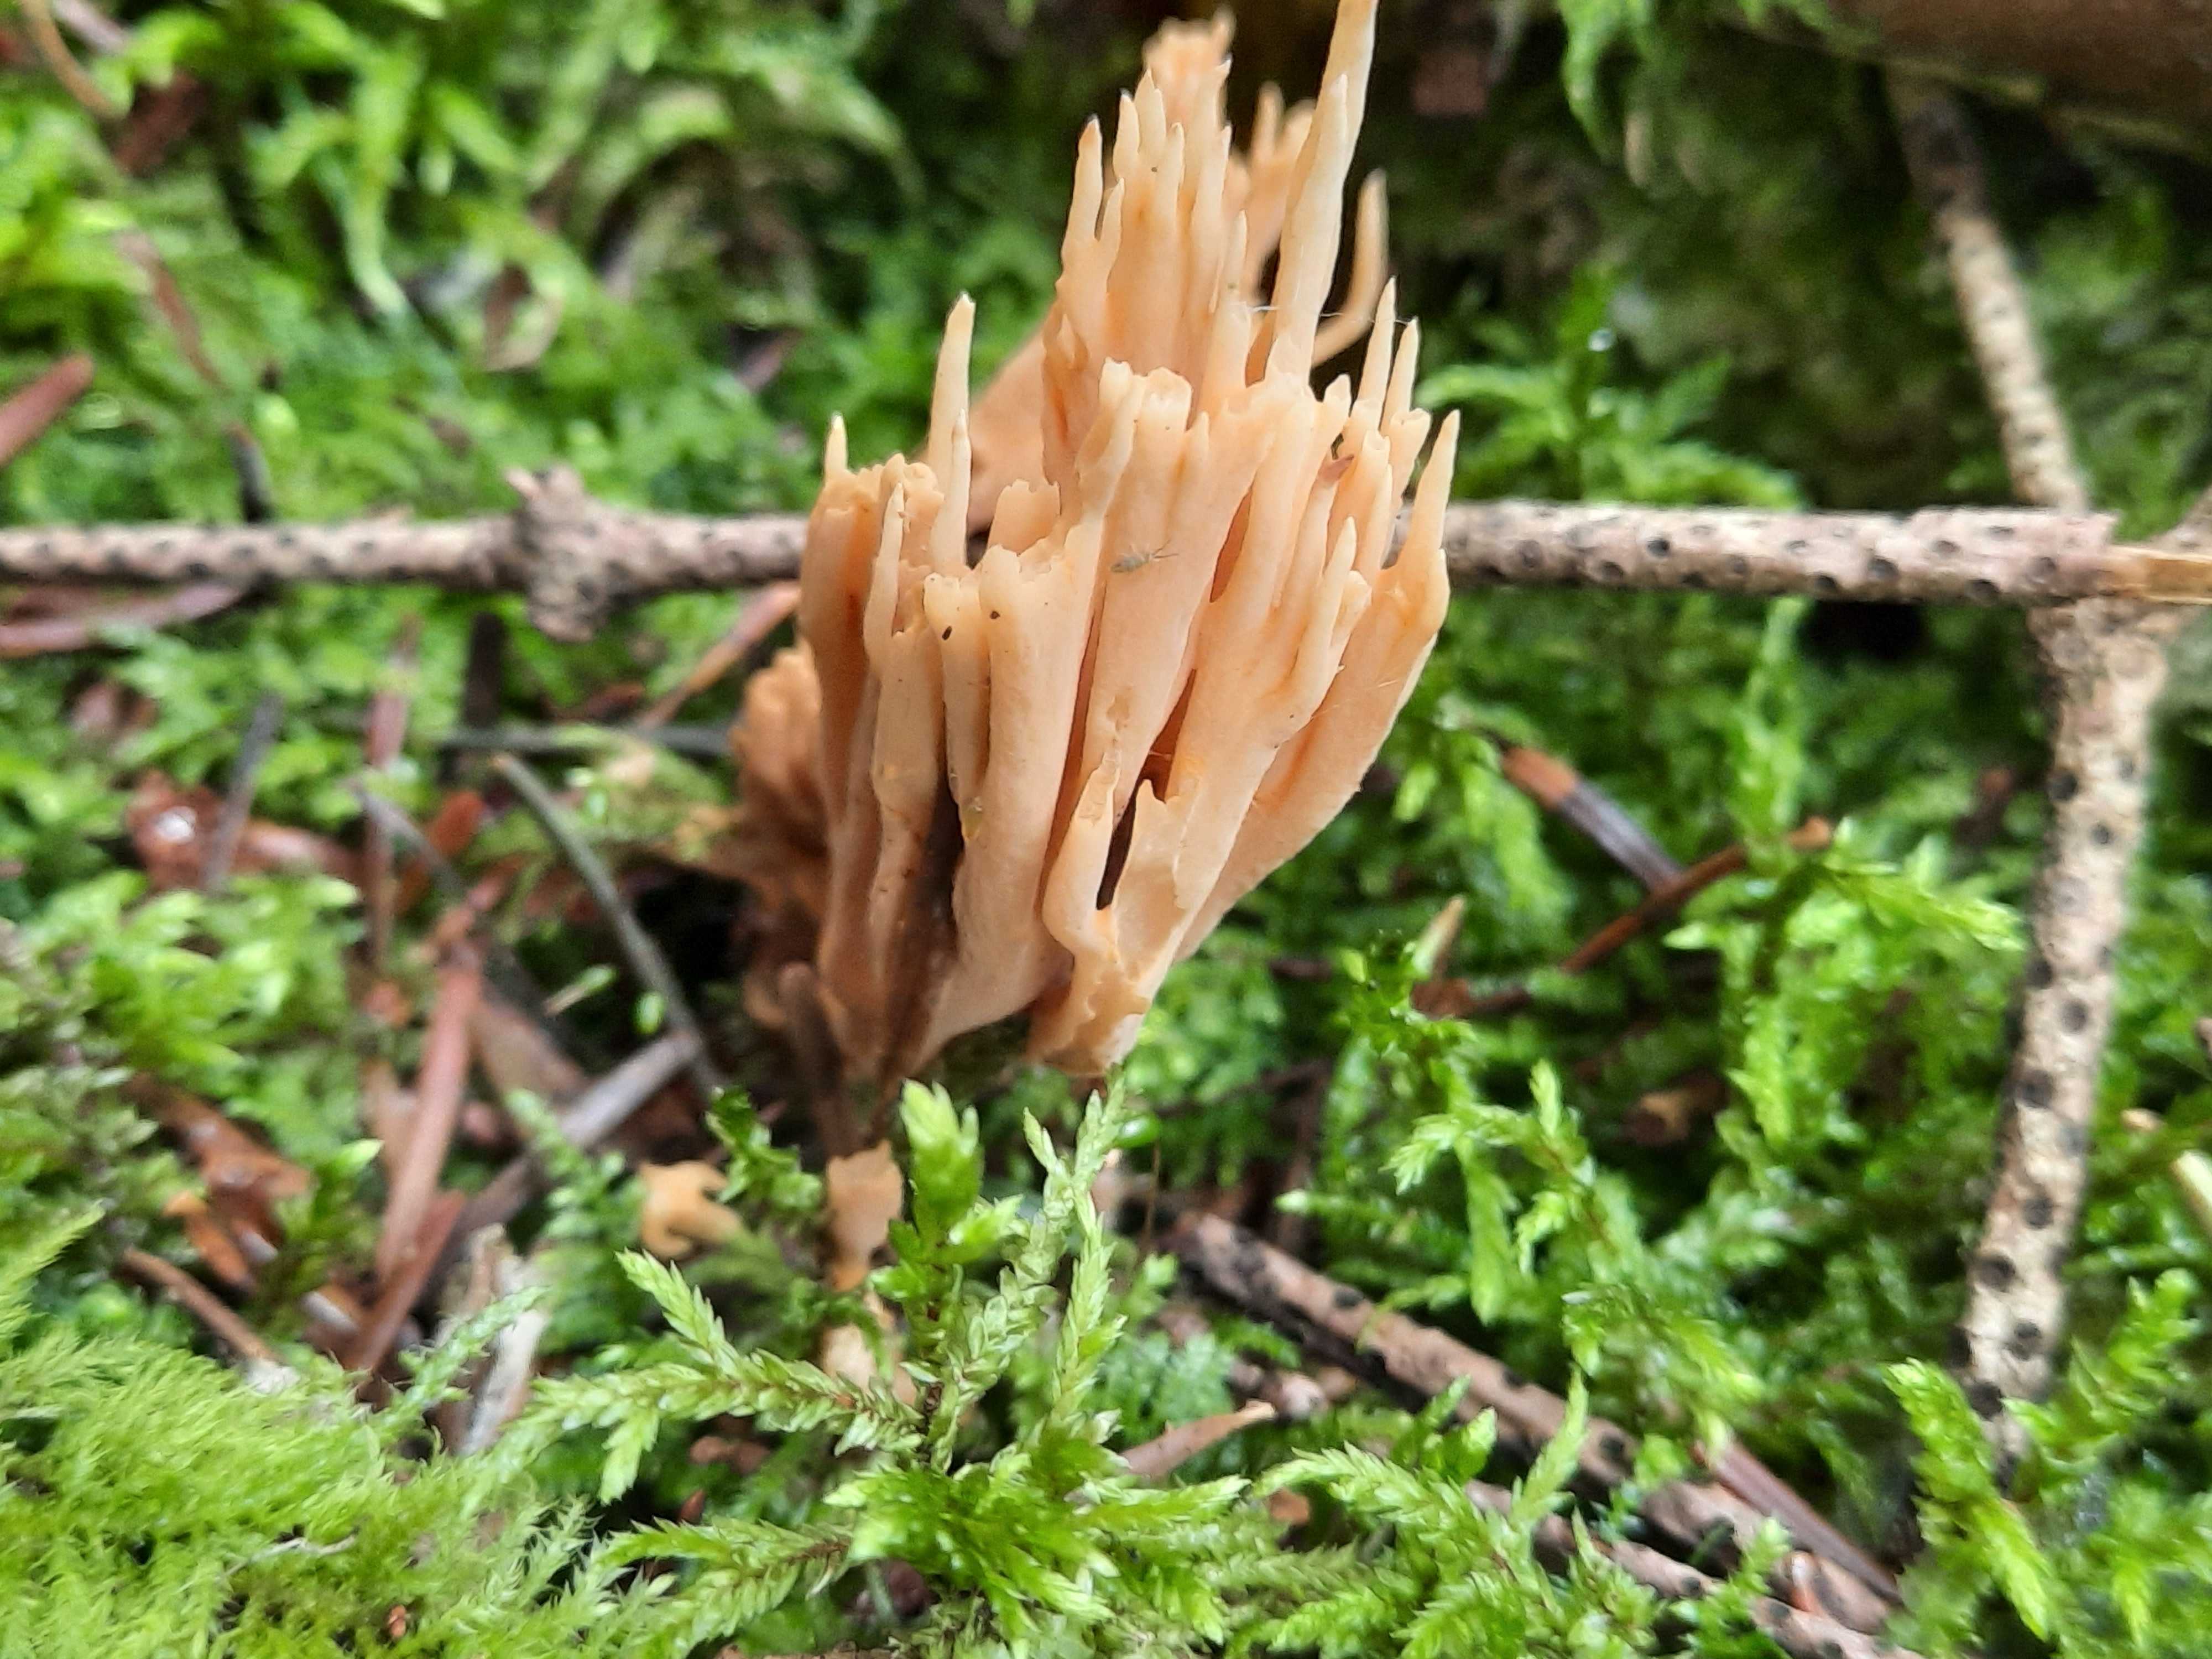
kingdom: Fungi
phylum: Basidiomycota
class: Agaricomycetes
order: Gomphales
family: Gomphaceae
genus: Phaeoclavulina
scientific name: Phaeoclavulina eumorpha
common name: gran-koralsvamp
